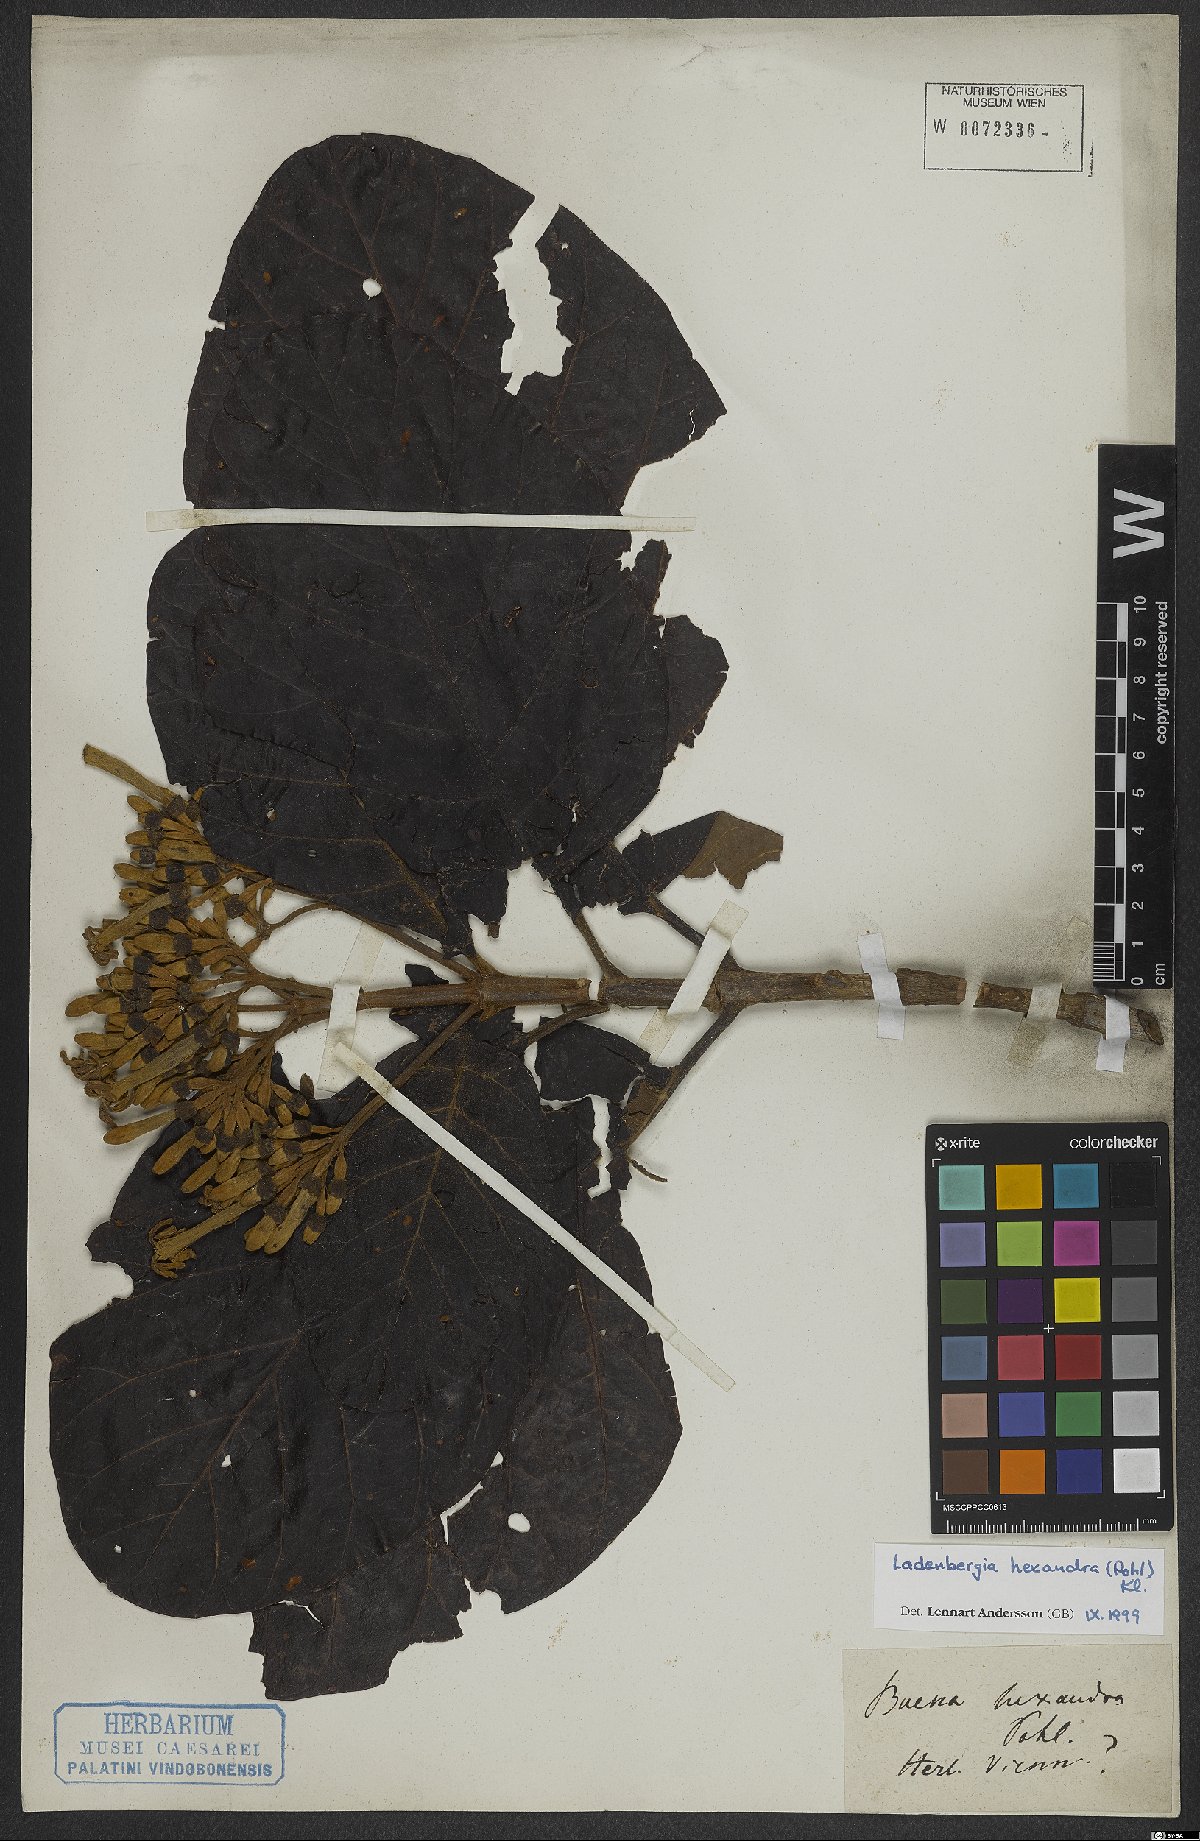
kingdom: Plantae
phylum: Tracheophyta
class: Magnoliopsida
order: Gentianales
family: Rubiaceae
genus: Ladenbergia
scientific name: Ladenbergia hexandra
